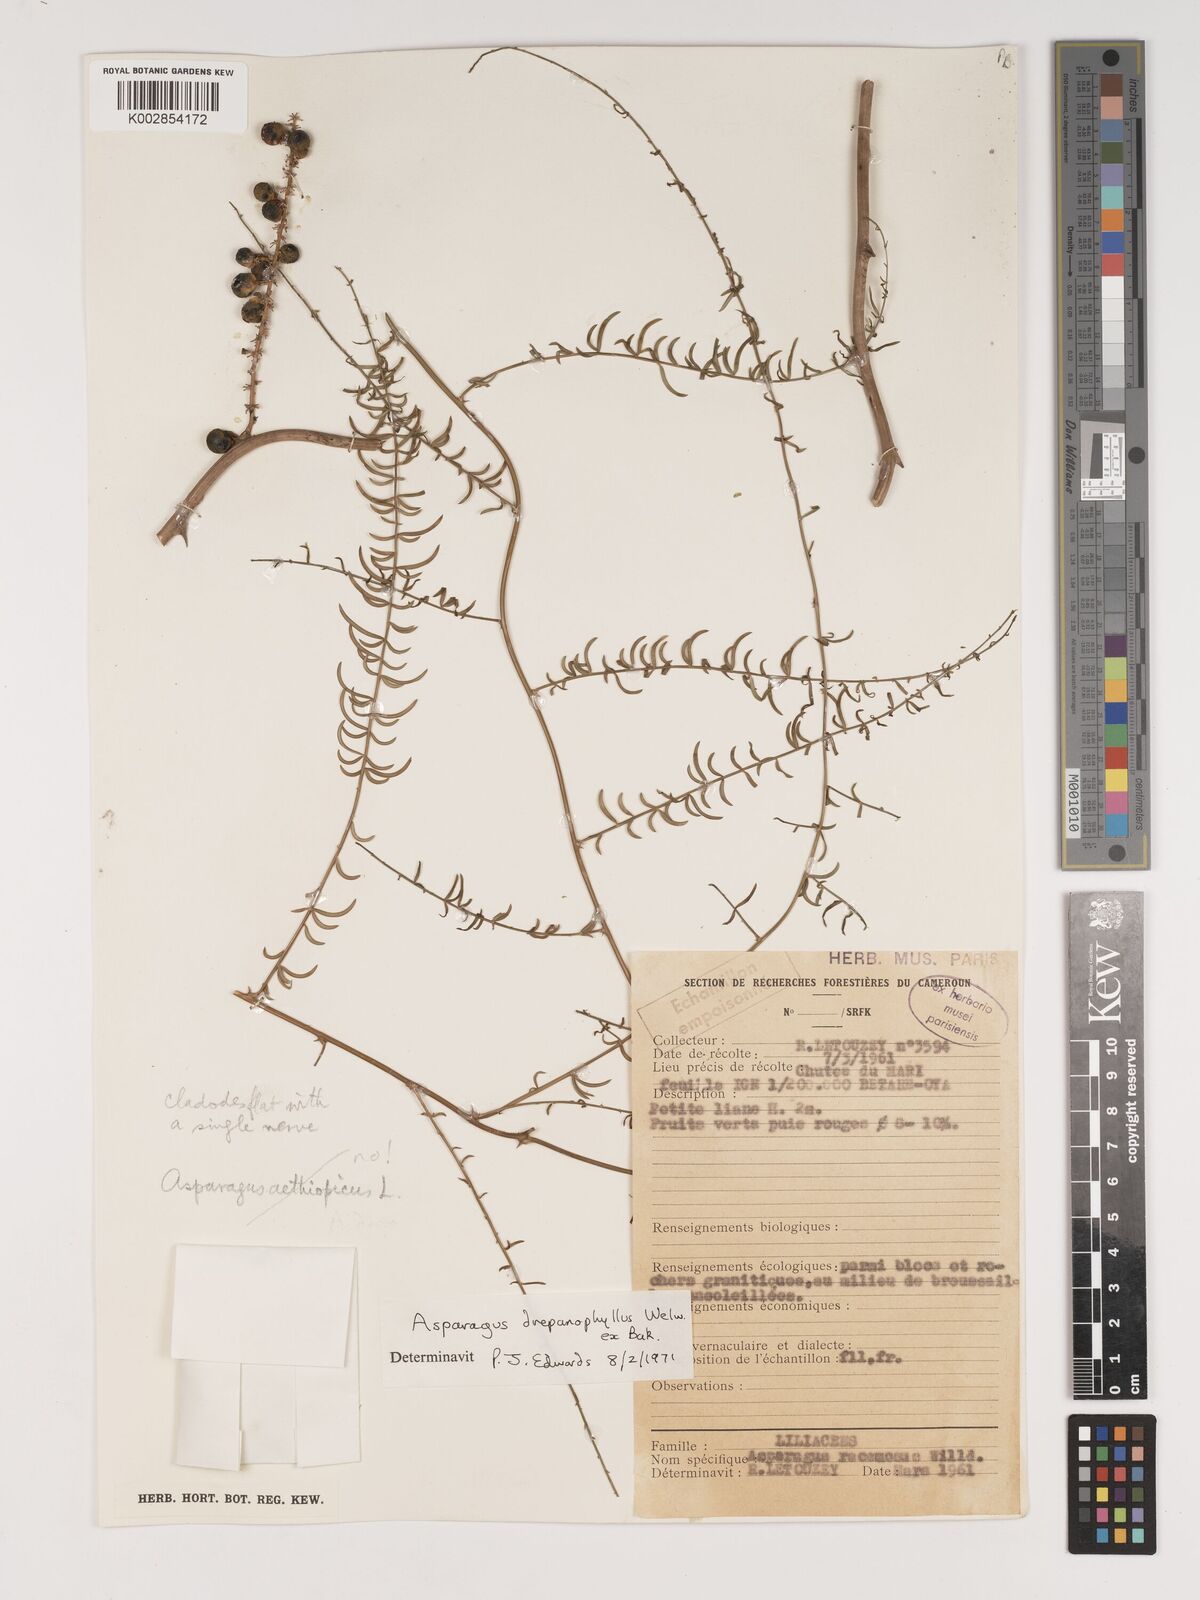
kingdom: Plantae
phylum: Tracheophyta
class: Liliopsida
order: Asparagales
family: Asparagaceae
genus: Asparagus
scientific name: Asparagus drepanophyllus
